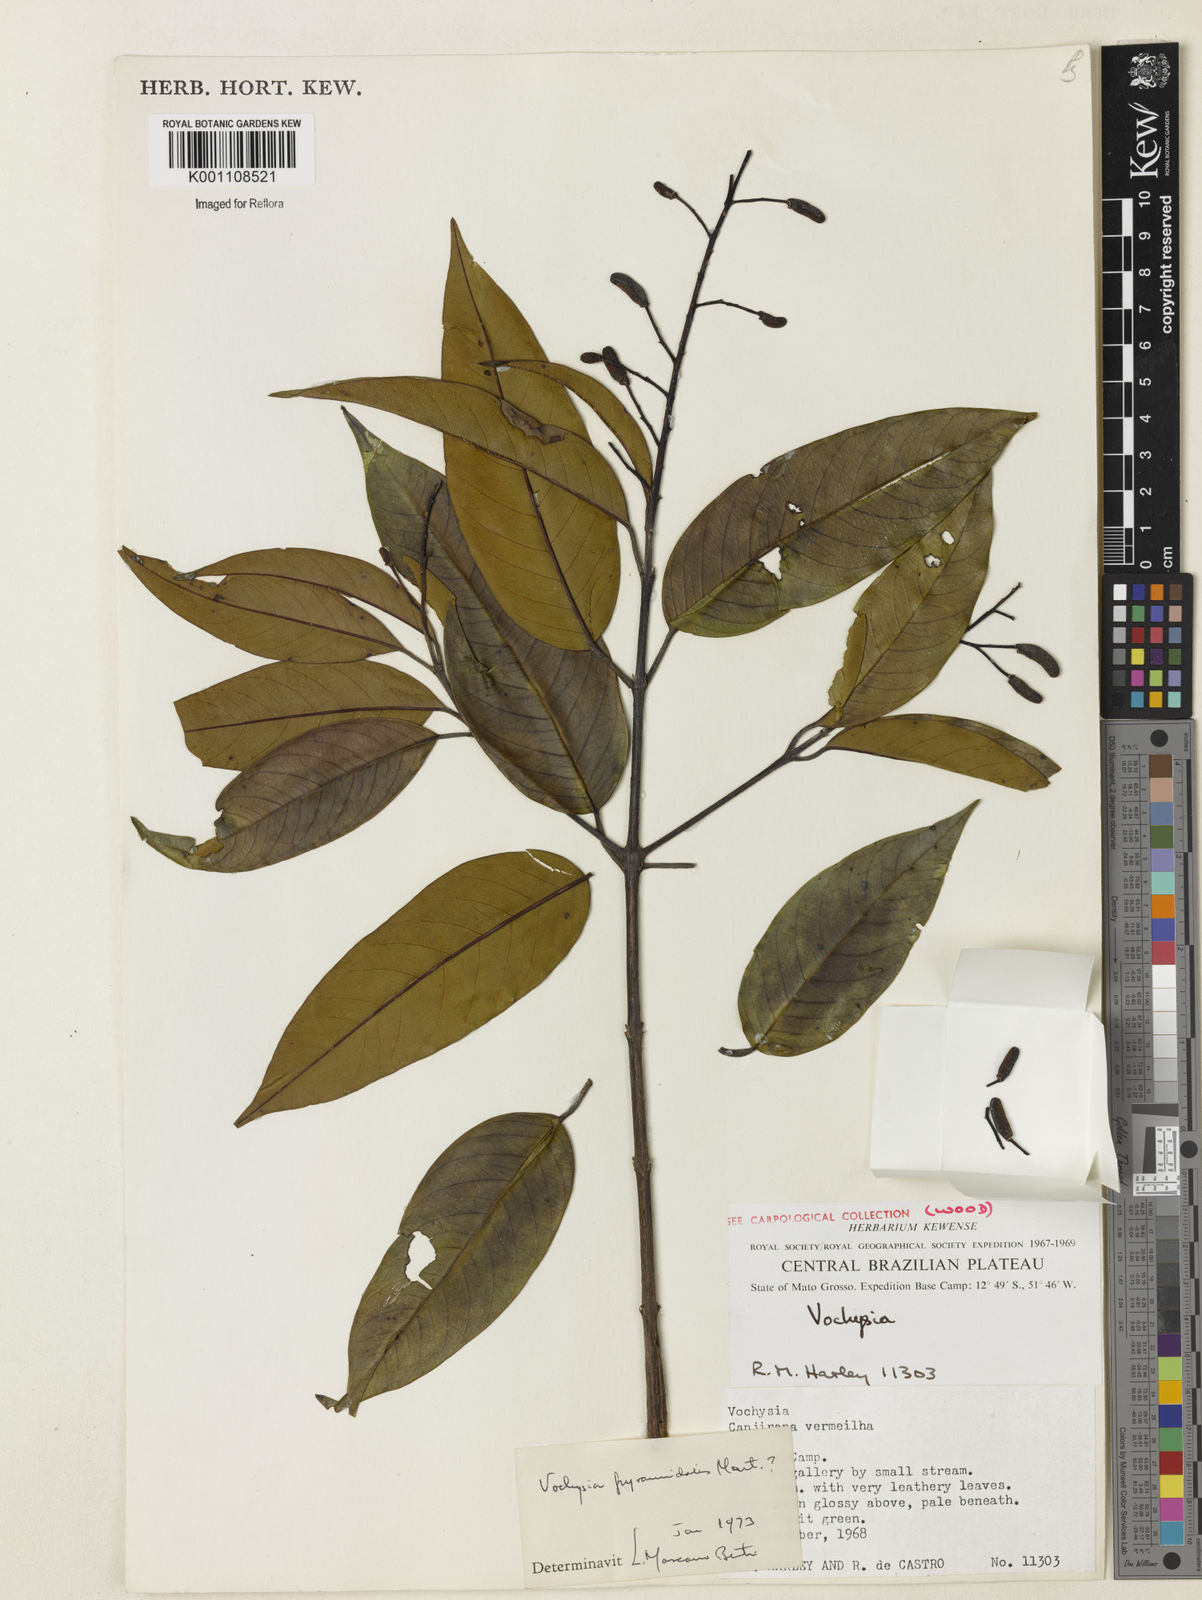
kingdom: Plantae
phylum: Tracheophyta
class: Magnoliopsida
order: Myrtales
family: Vochysiaceae
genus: Vochysia
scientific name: Vochysia pyramidalis
